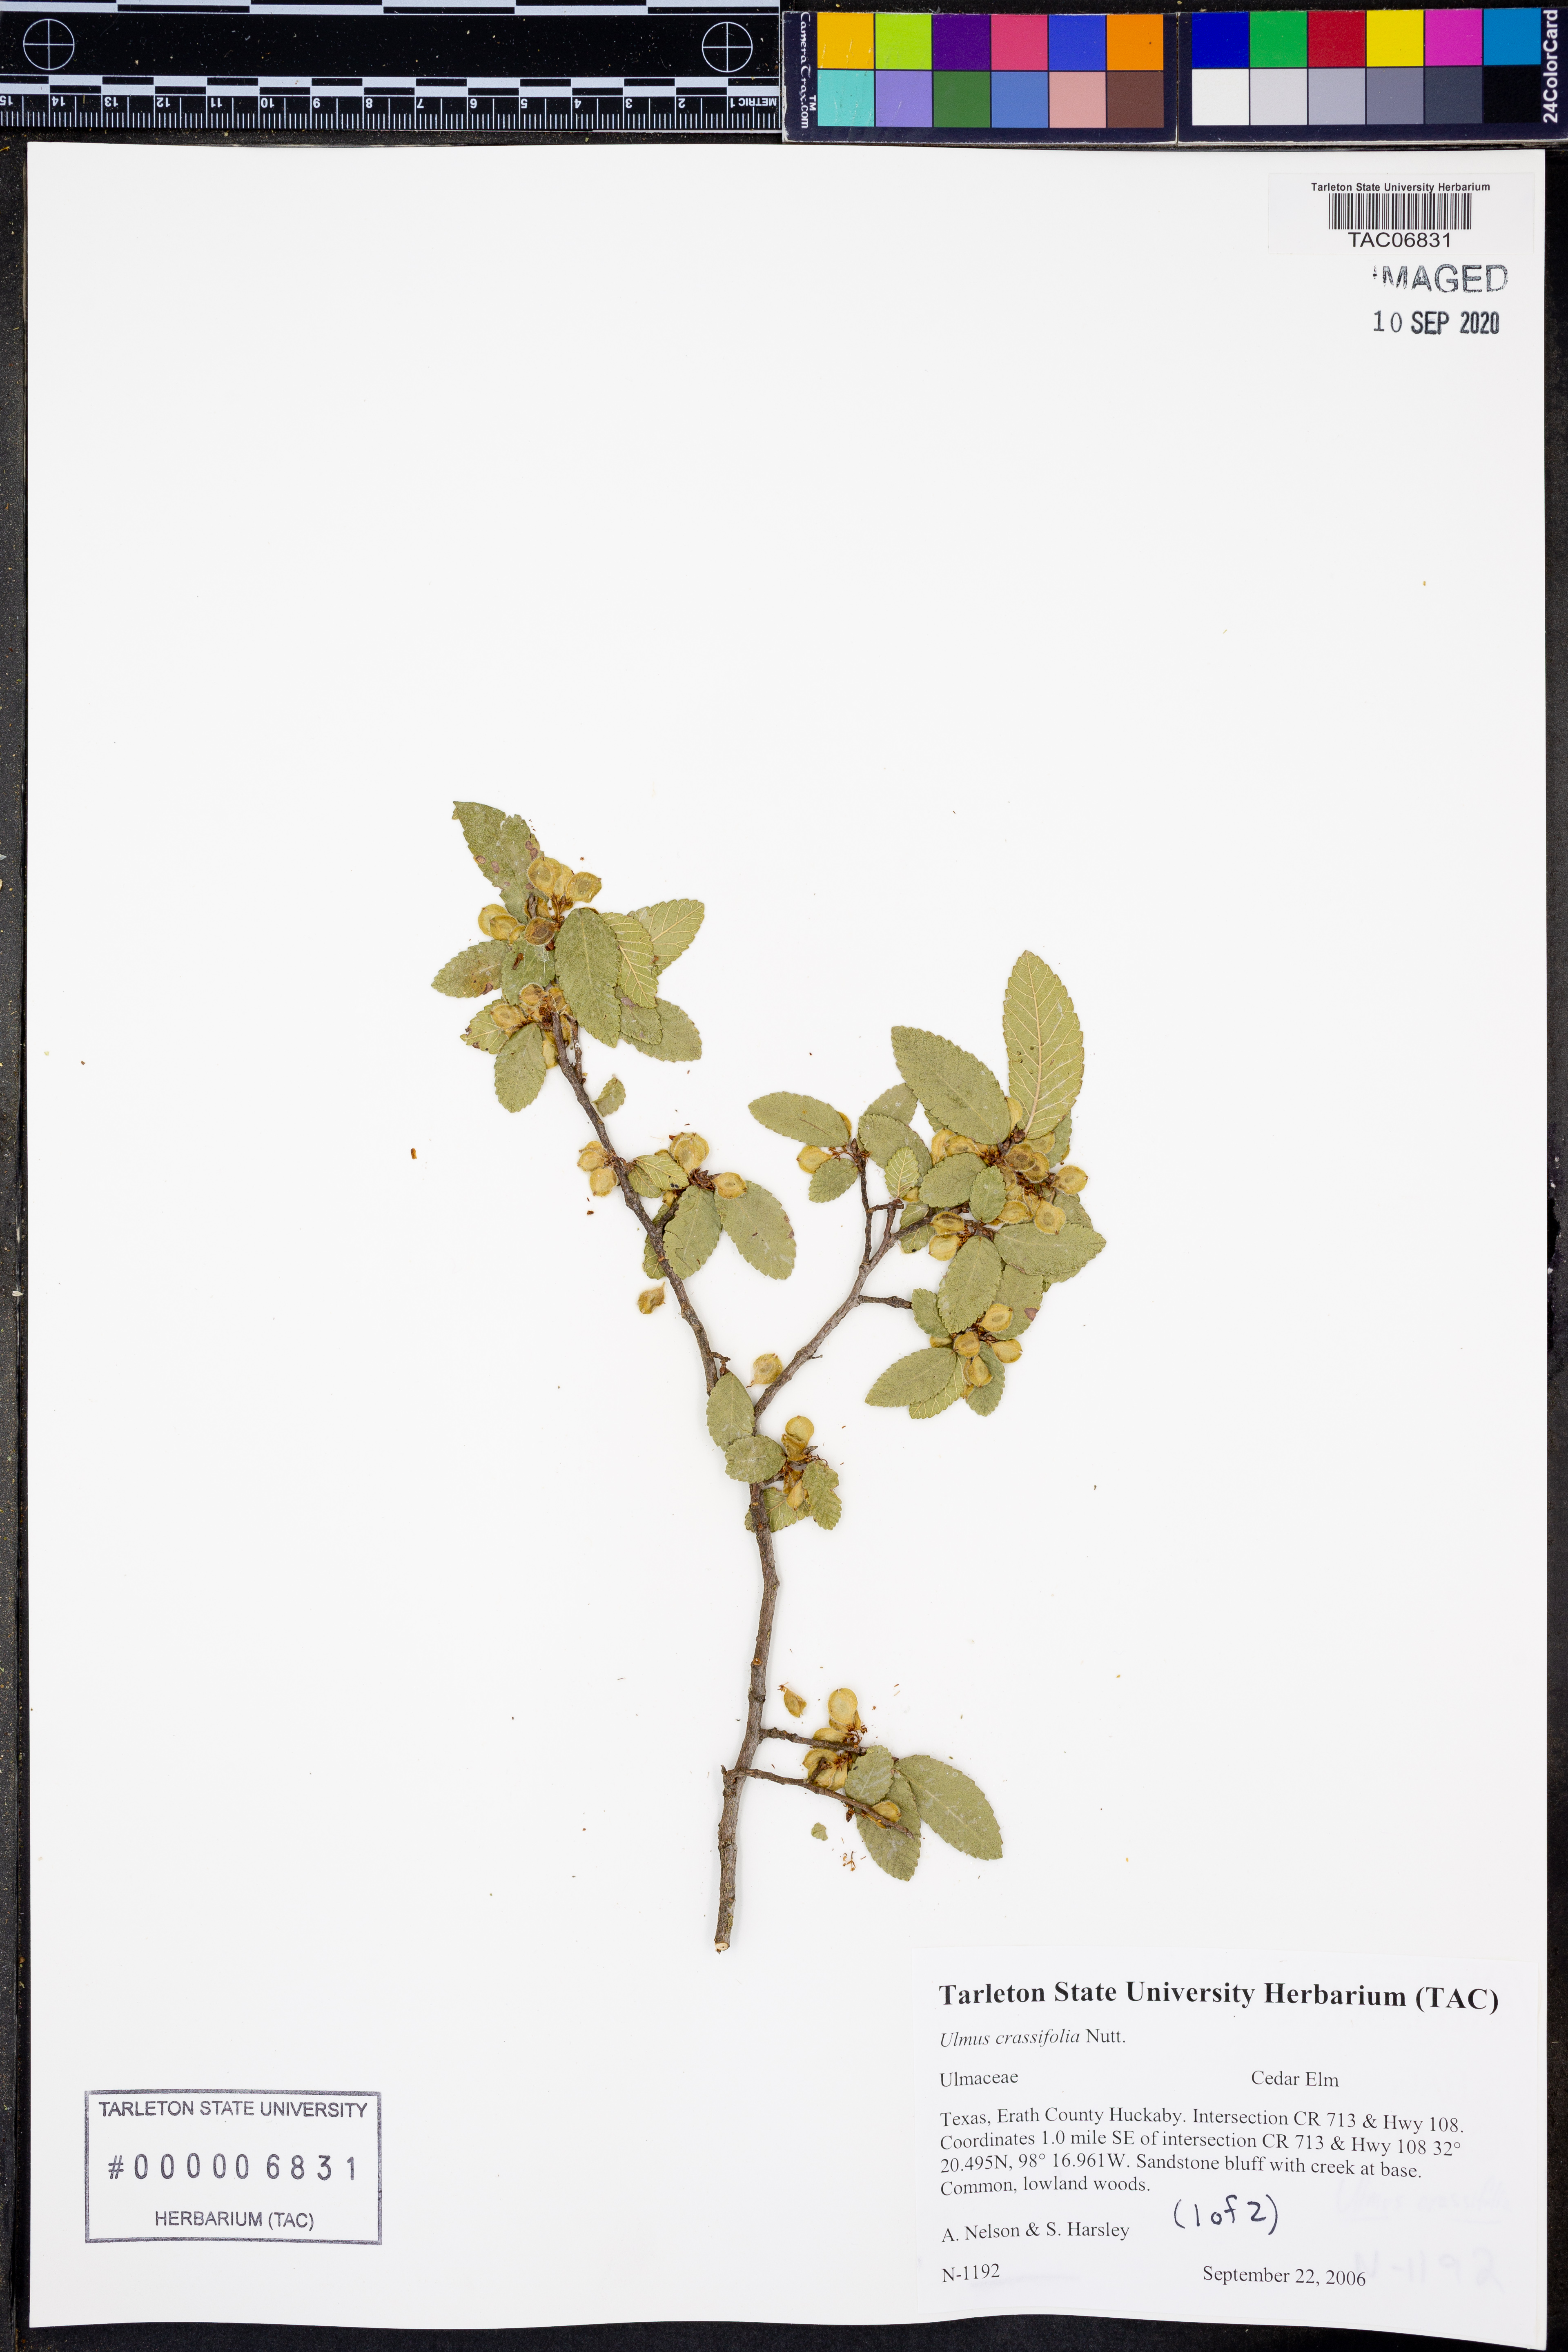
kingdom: Plantae
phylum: Tracheophyta
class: Magnoliopsida
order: Rosales
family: Ulmaceae
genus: Ulmus
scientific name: Ulmus crassifolia
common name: Basket elm
